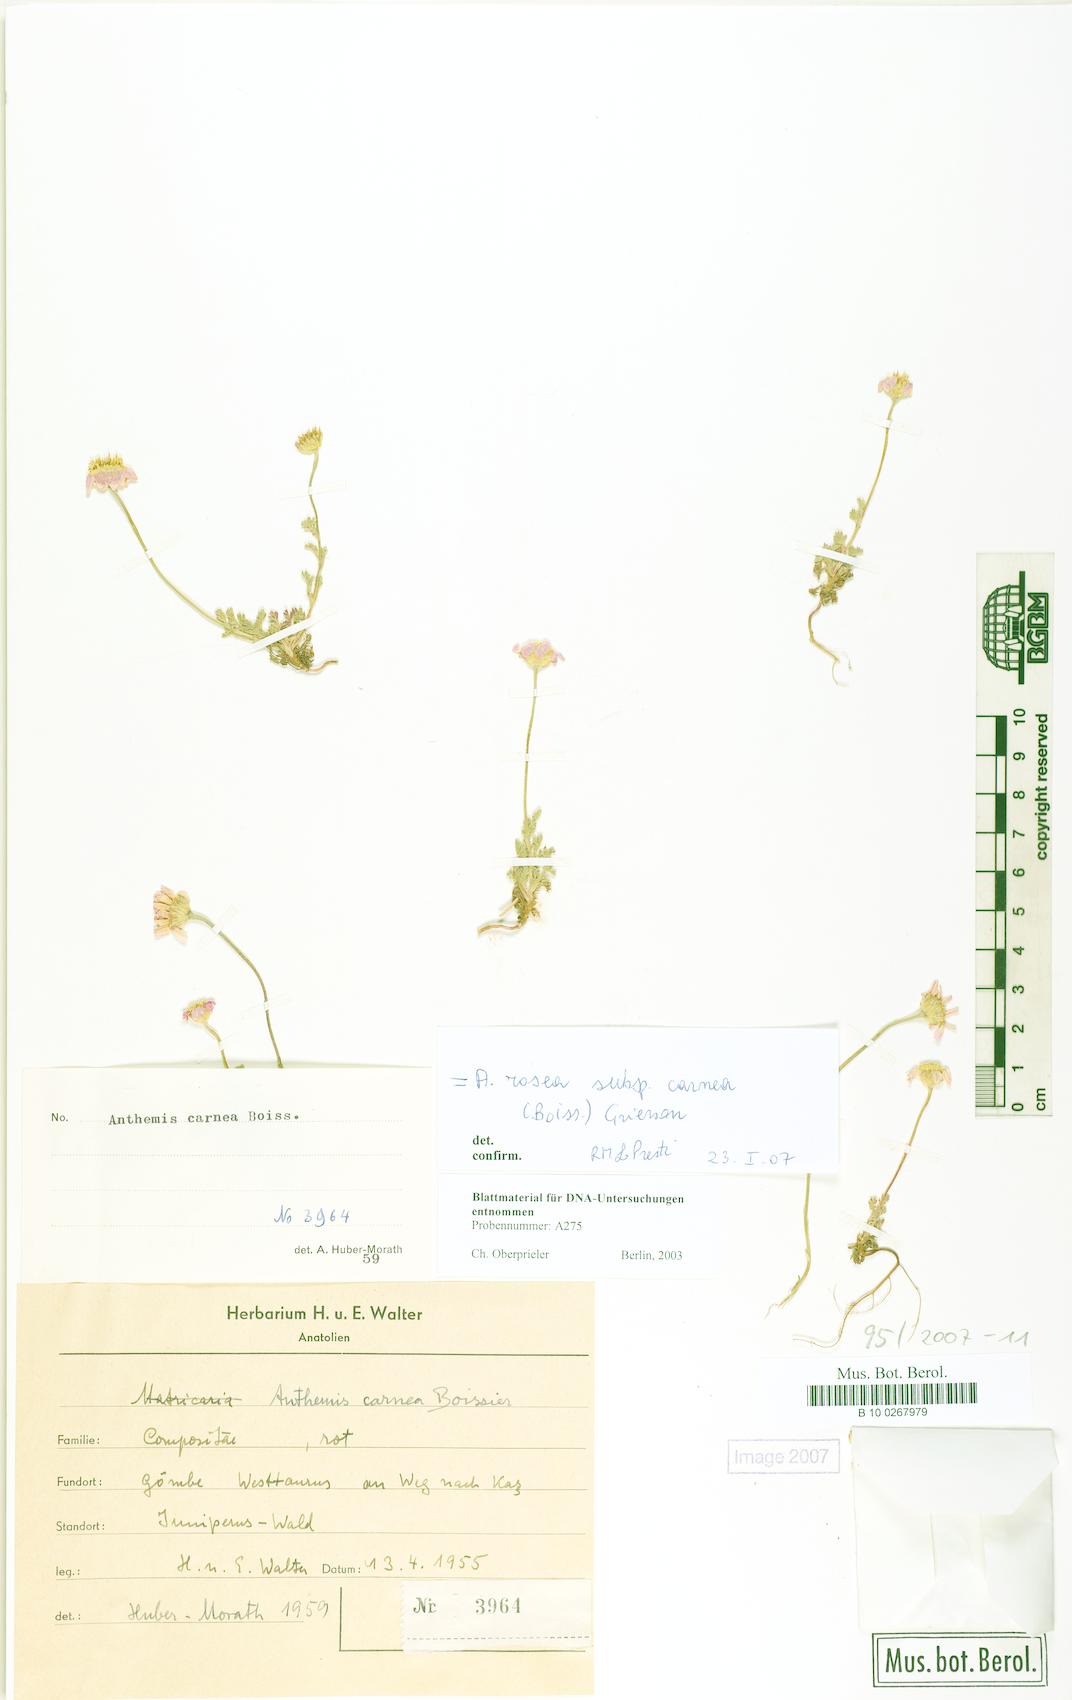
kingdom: Plantae
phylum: Tracheophyta
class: Magnoliopsida
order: Asterales
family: Asteraceae
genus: Anthemis
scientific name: Anthemis rosea
